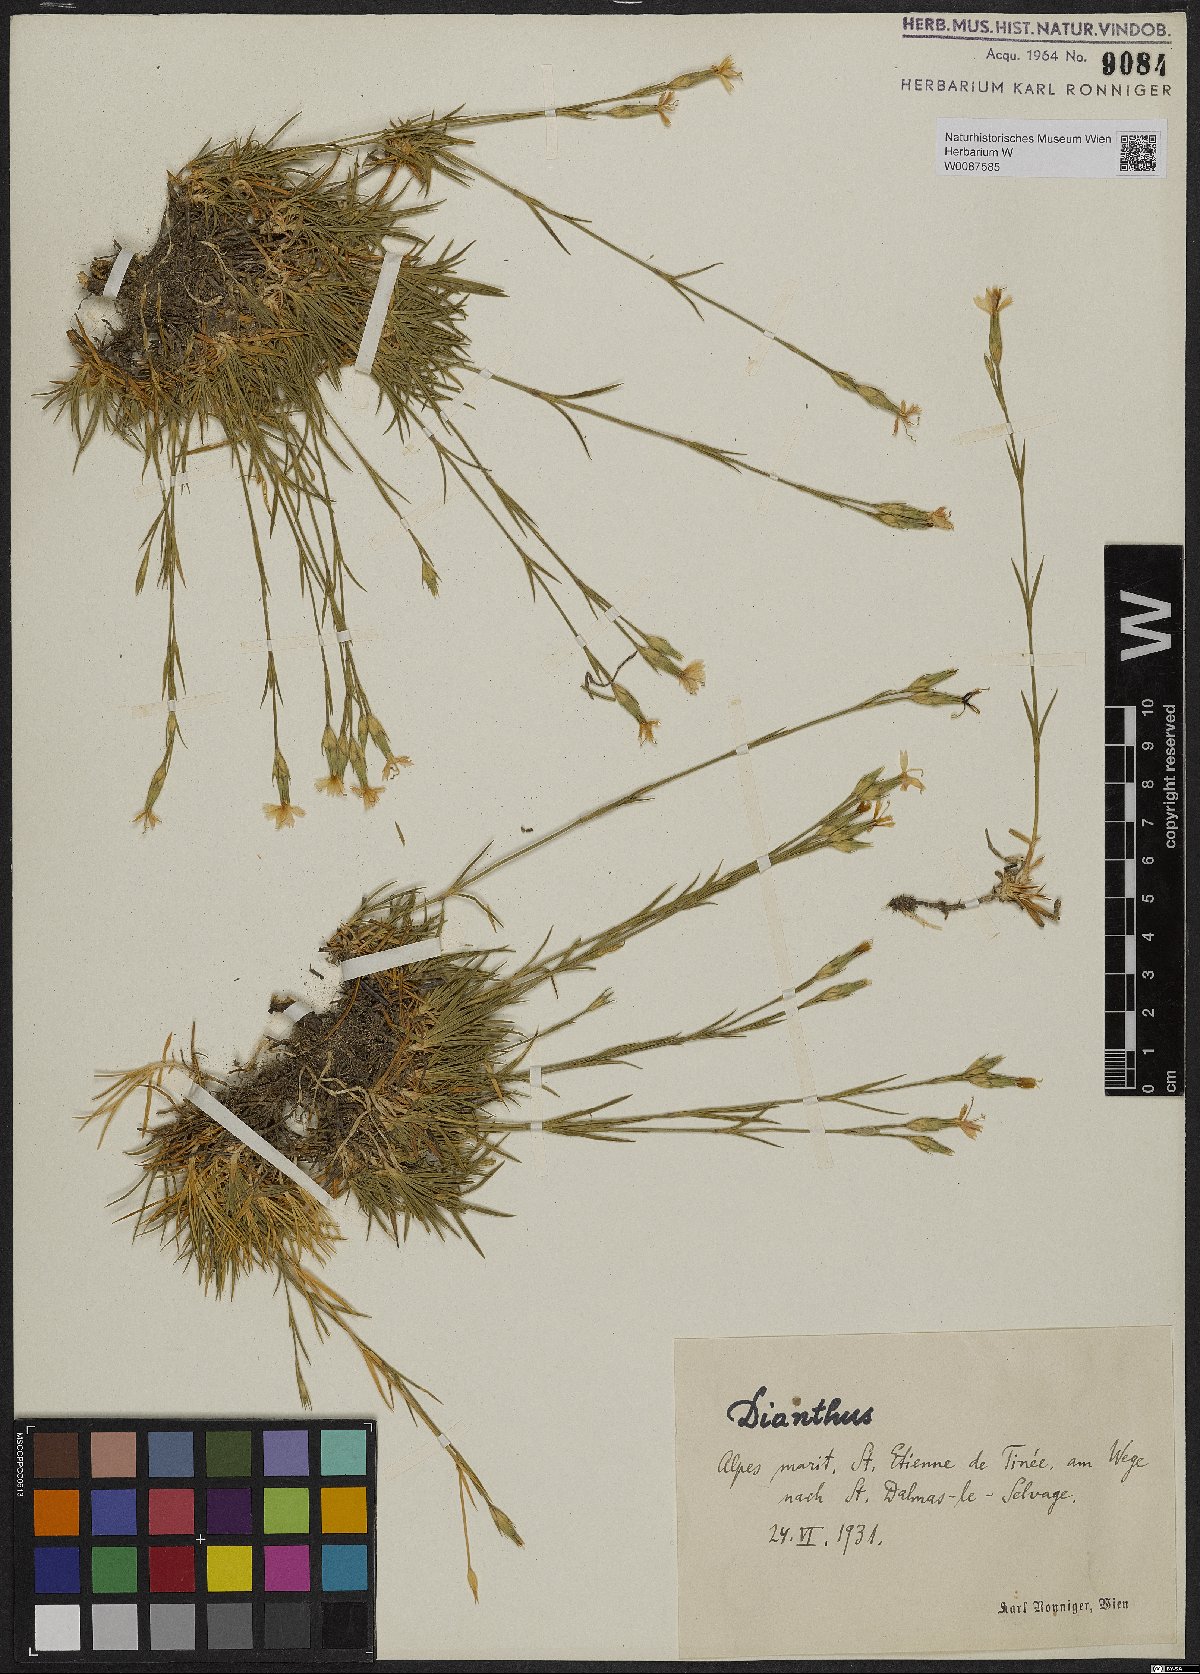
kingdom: Plantae
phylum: Tracheophyta
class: Magnoliopsida
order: Caryophyllales
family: Caryophyllaceae
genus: Dianthus
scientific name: Dianthus
